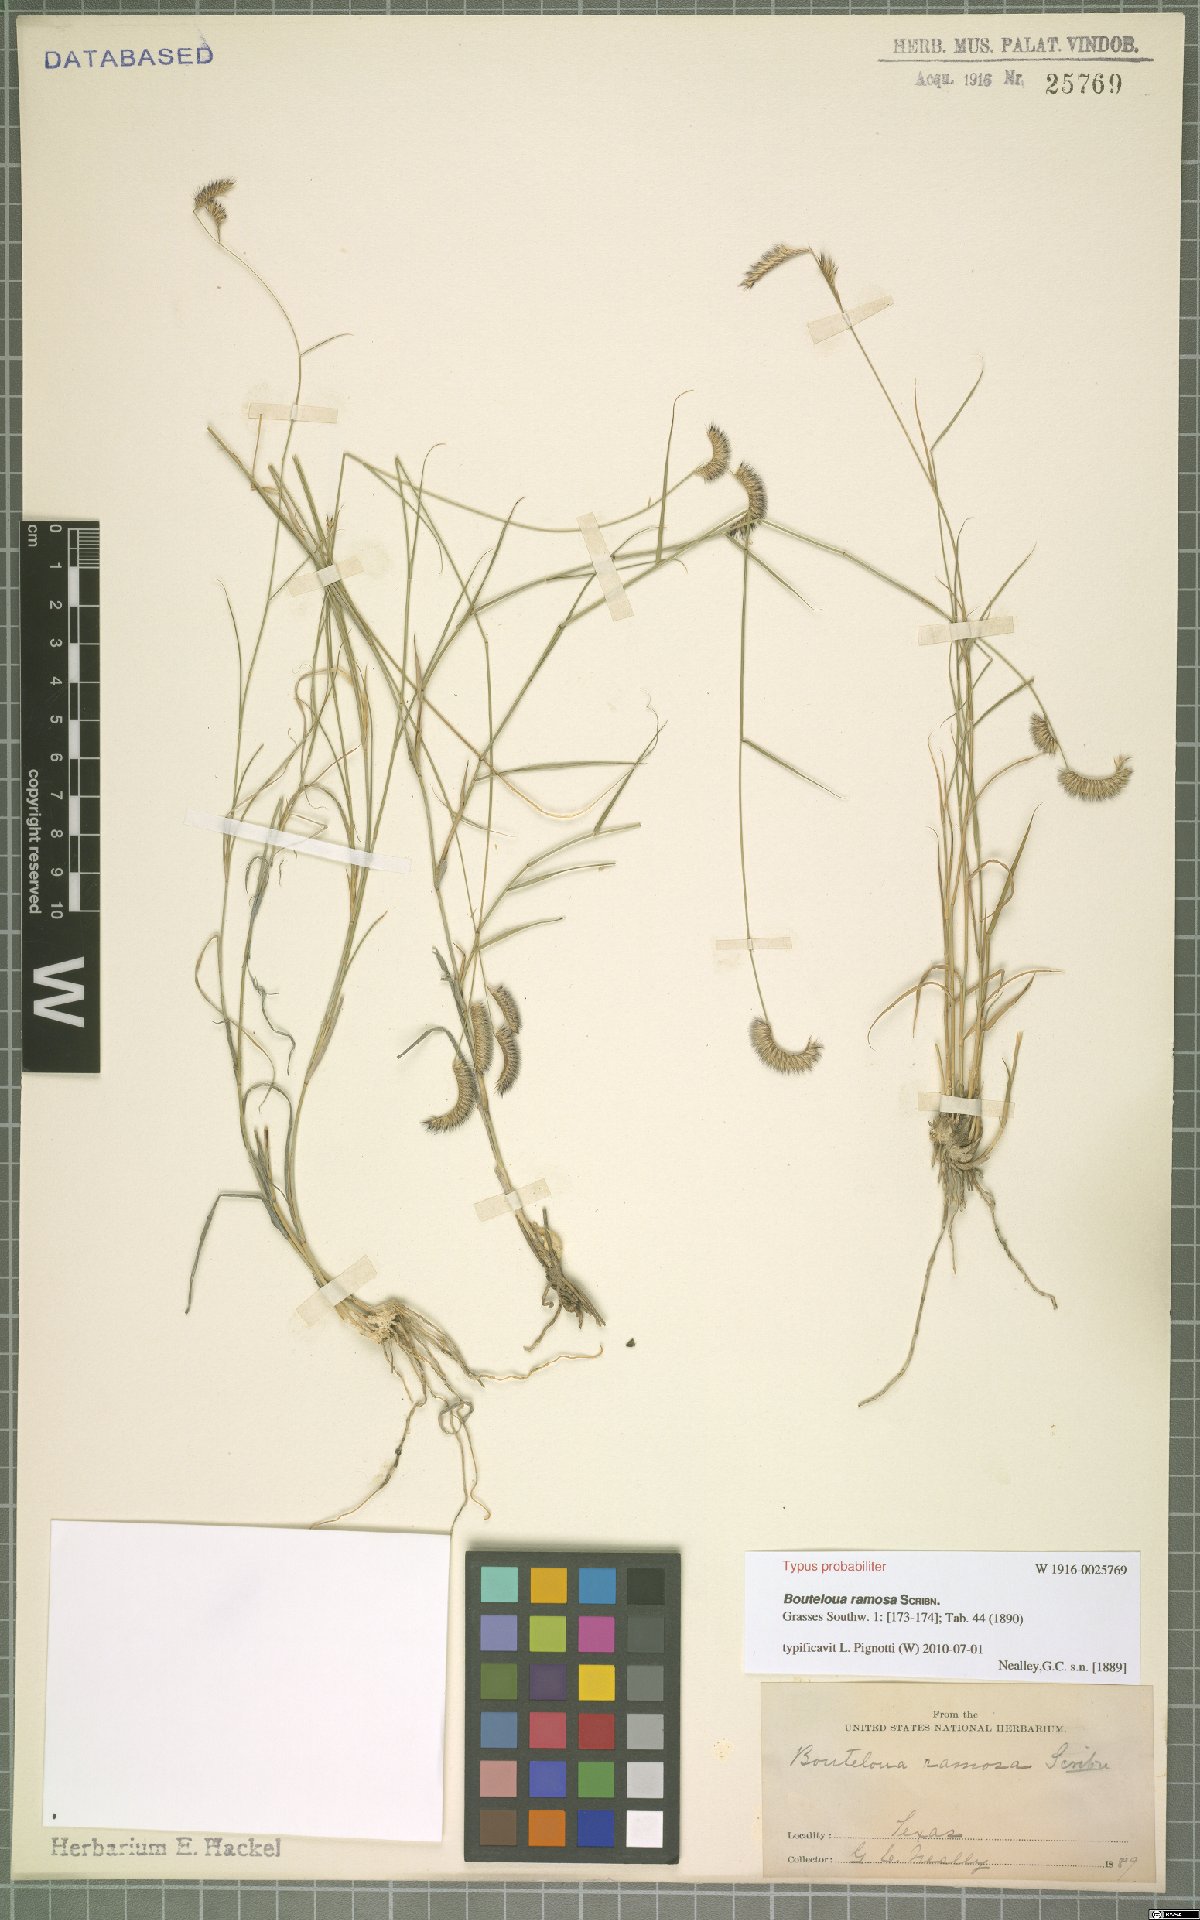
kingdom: Plantae
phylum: Tracheophyta
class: Liliopsida
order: Poales
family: Poaceae
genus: Bouteloua
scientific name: Bouteloua breviseta
